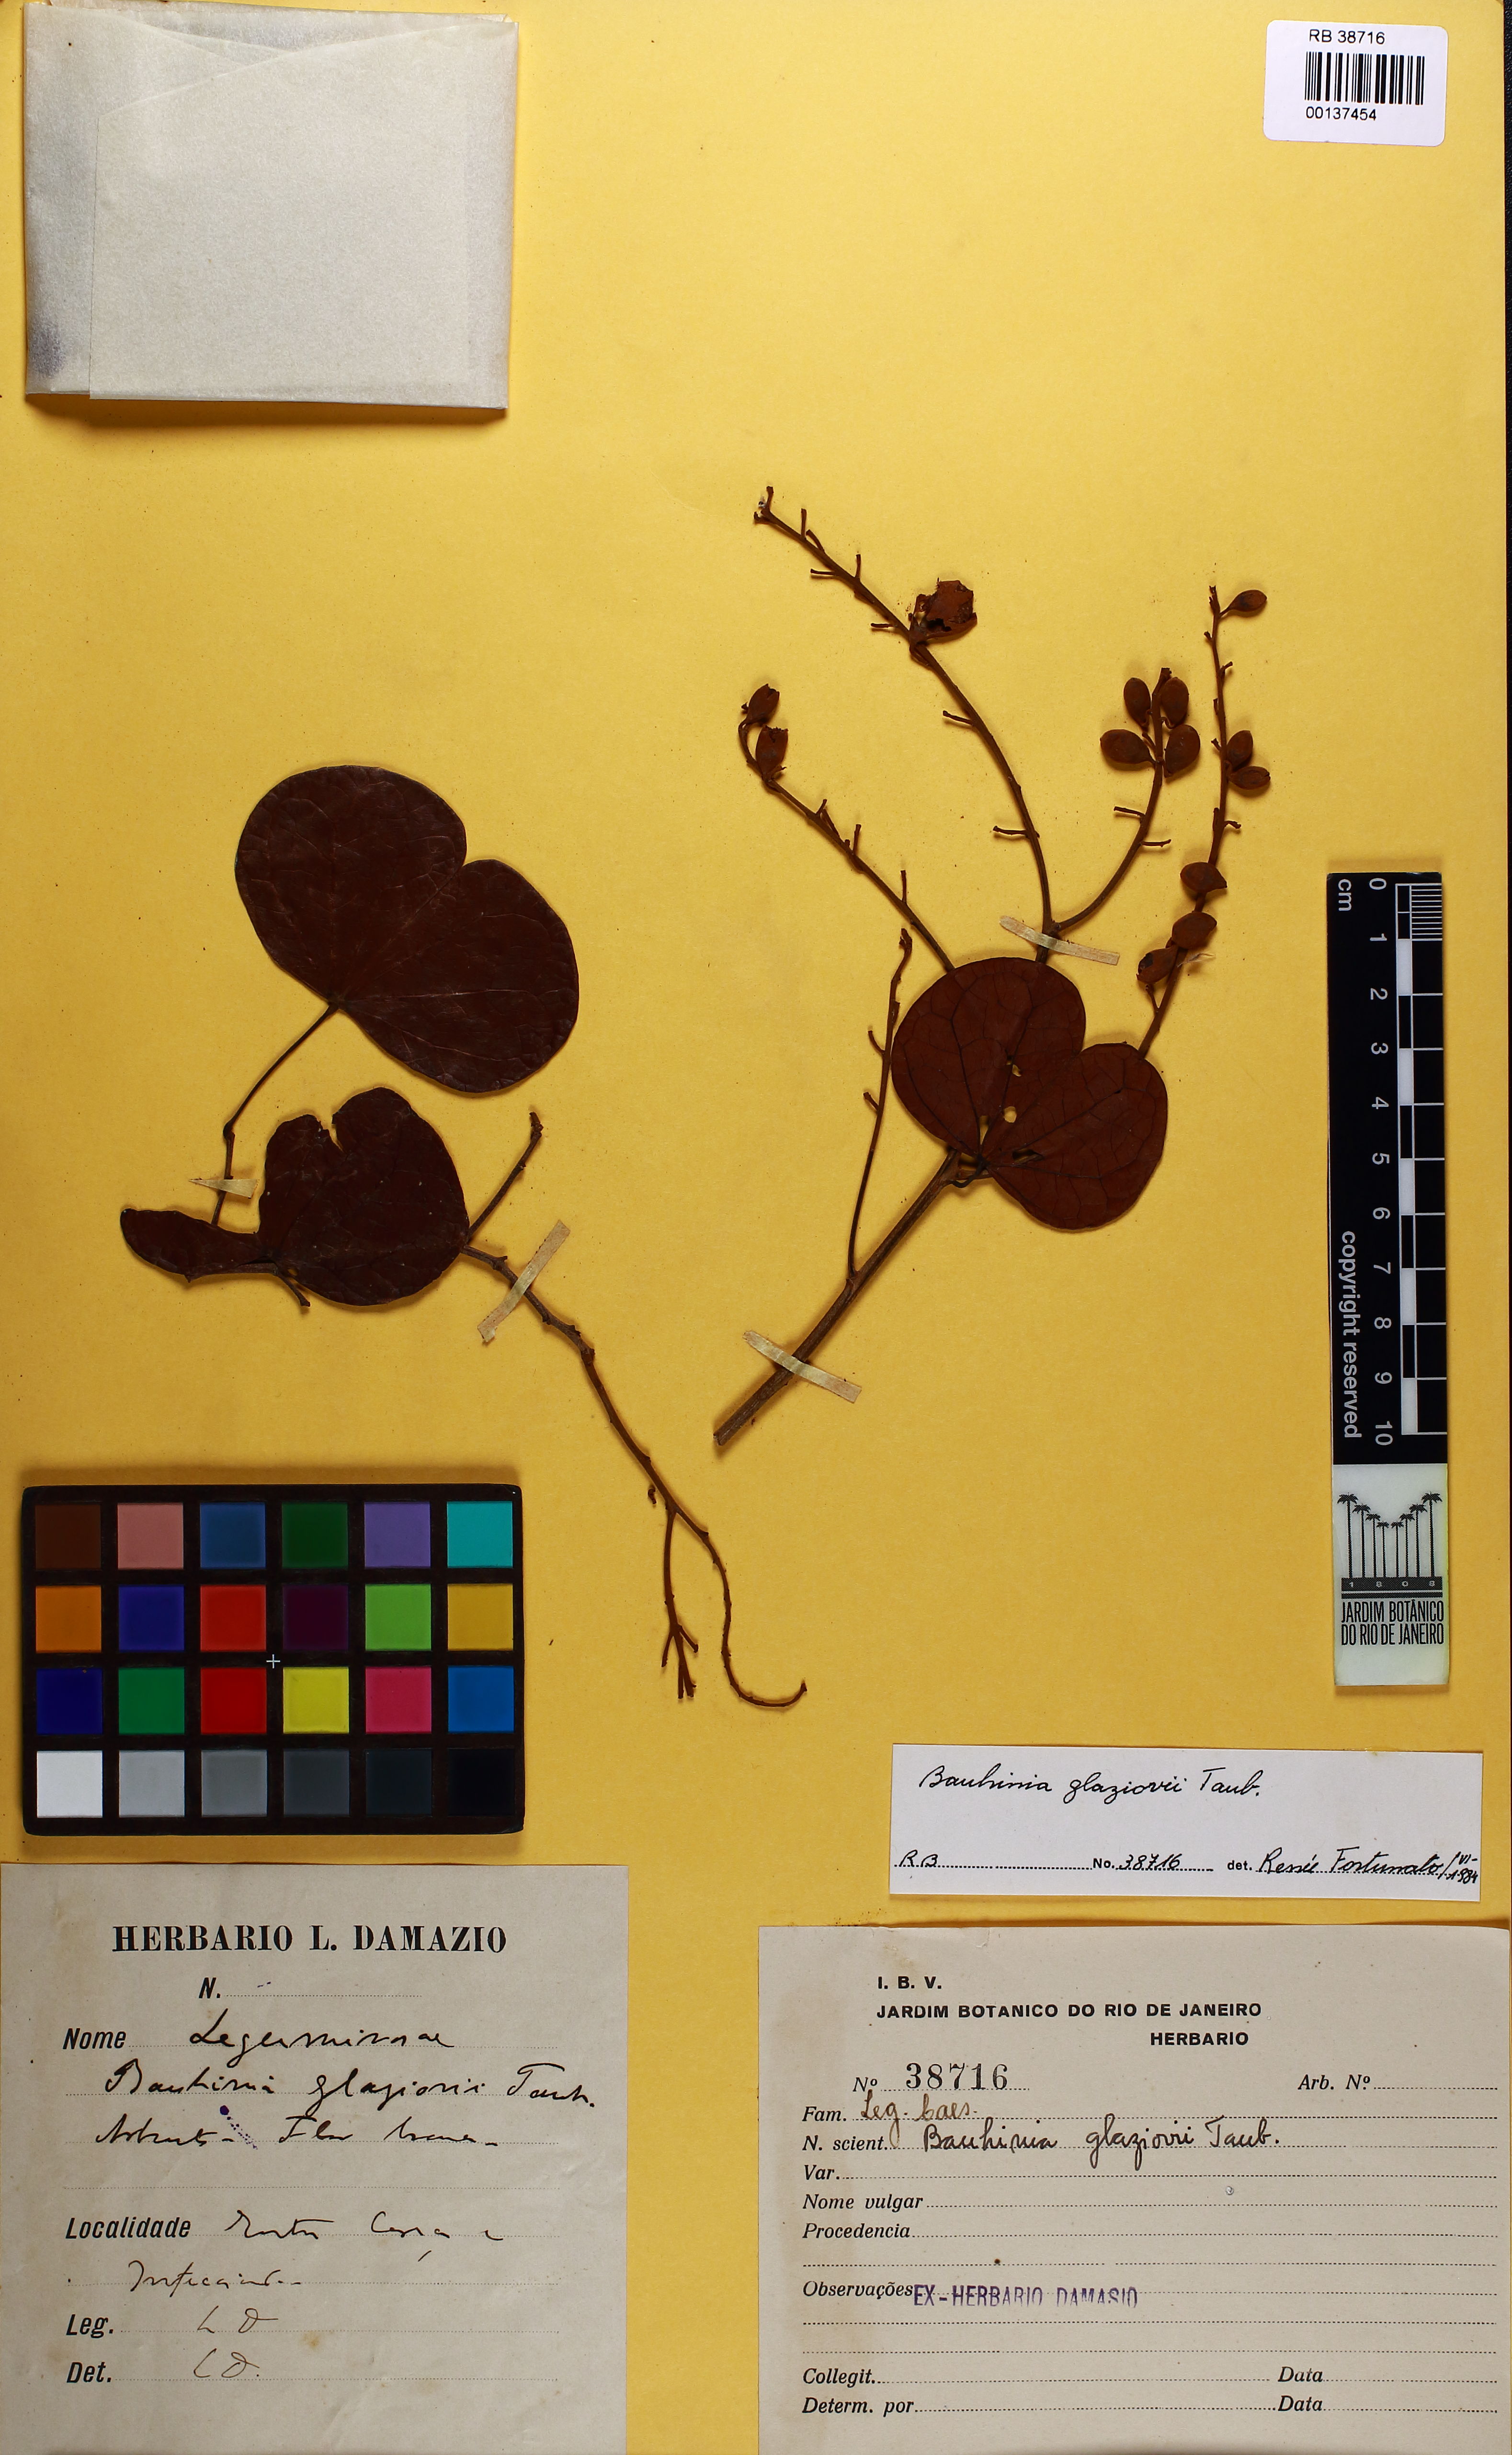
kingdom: Plantae
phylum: Tracheophyta
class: Magnoliopsida
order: Fabales
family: Fabaceae
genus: Bauhinia
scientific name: Bauhinia glaziovii
